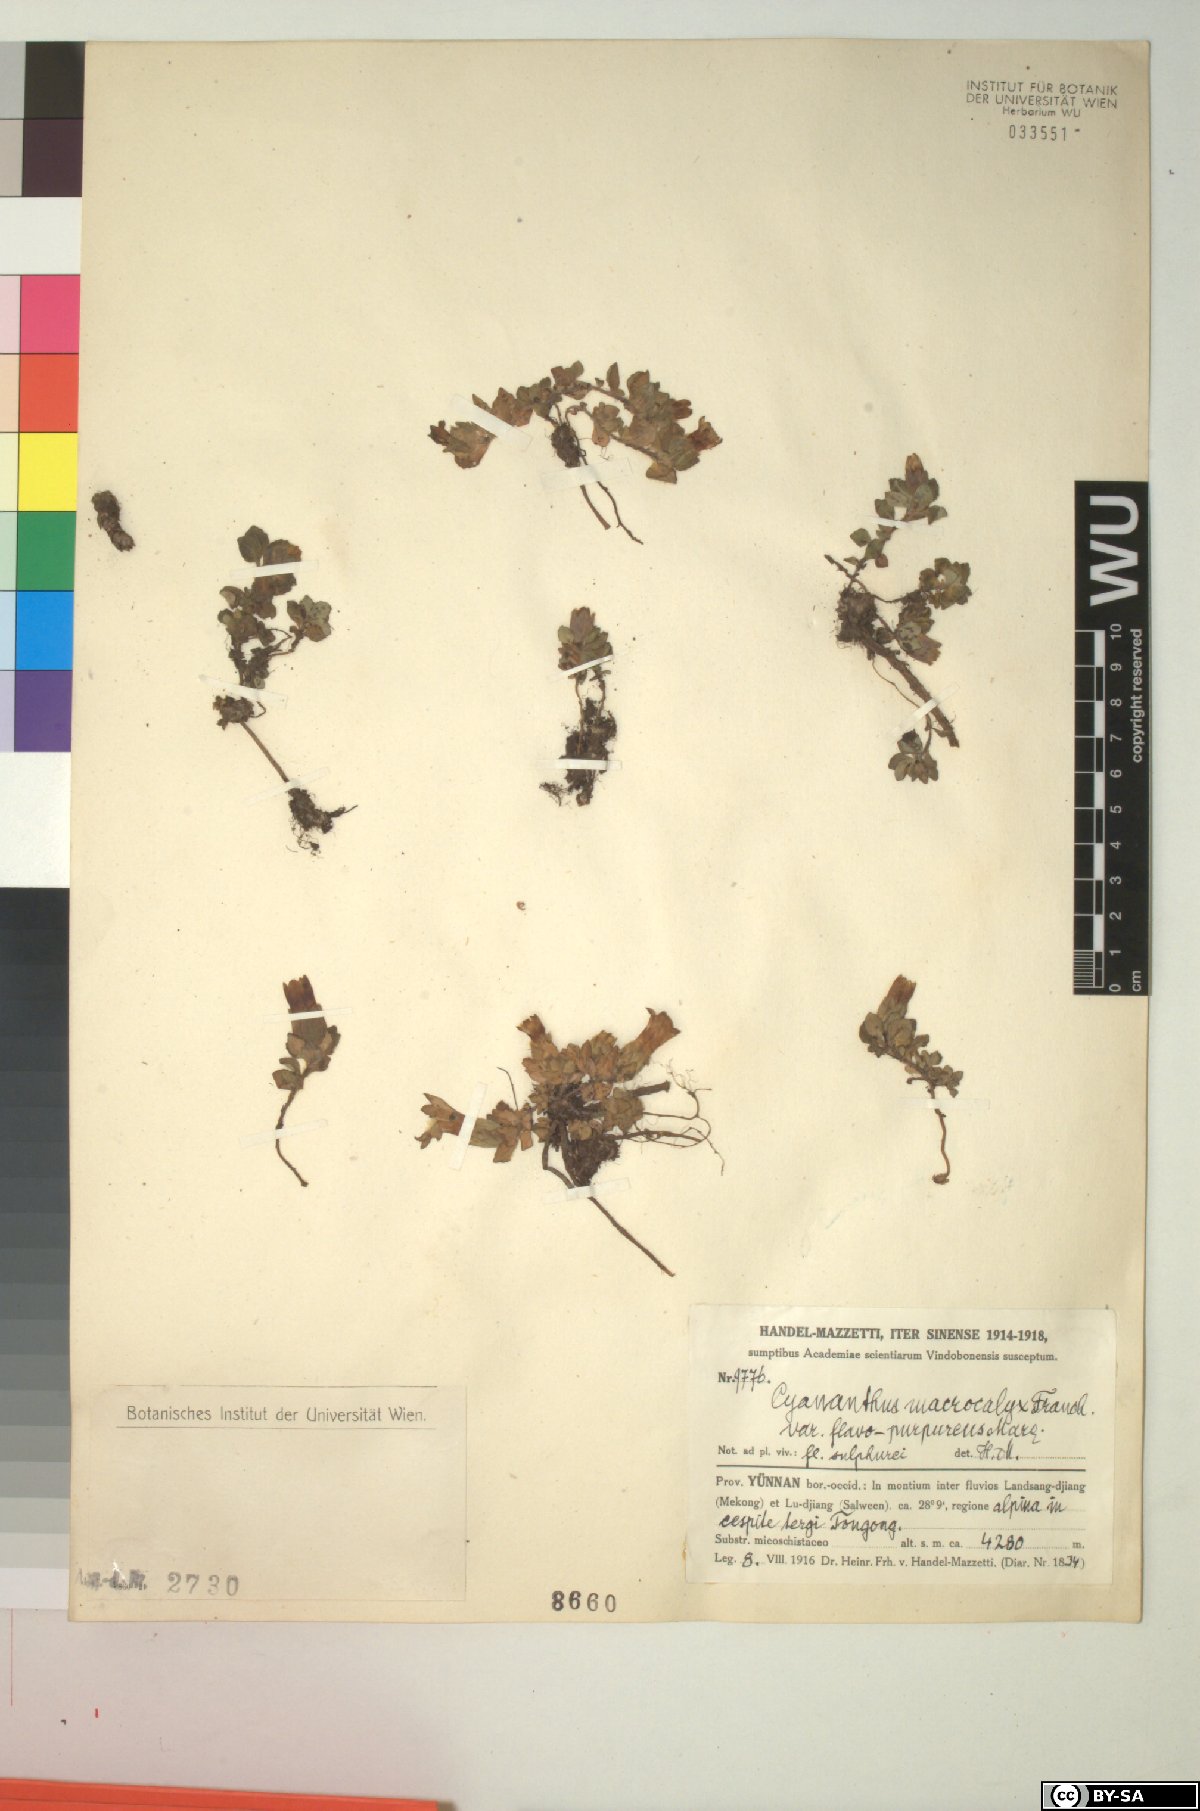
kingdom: Plantae
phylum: Tracheophyta
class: Magnoliopsida
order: Asterales
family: Campanulaceae
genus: Cyananthus
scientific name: Cyananthus macrocalyx
